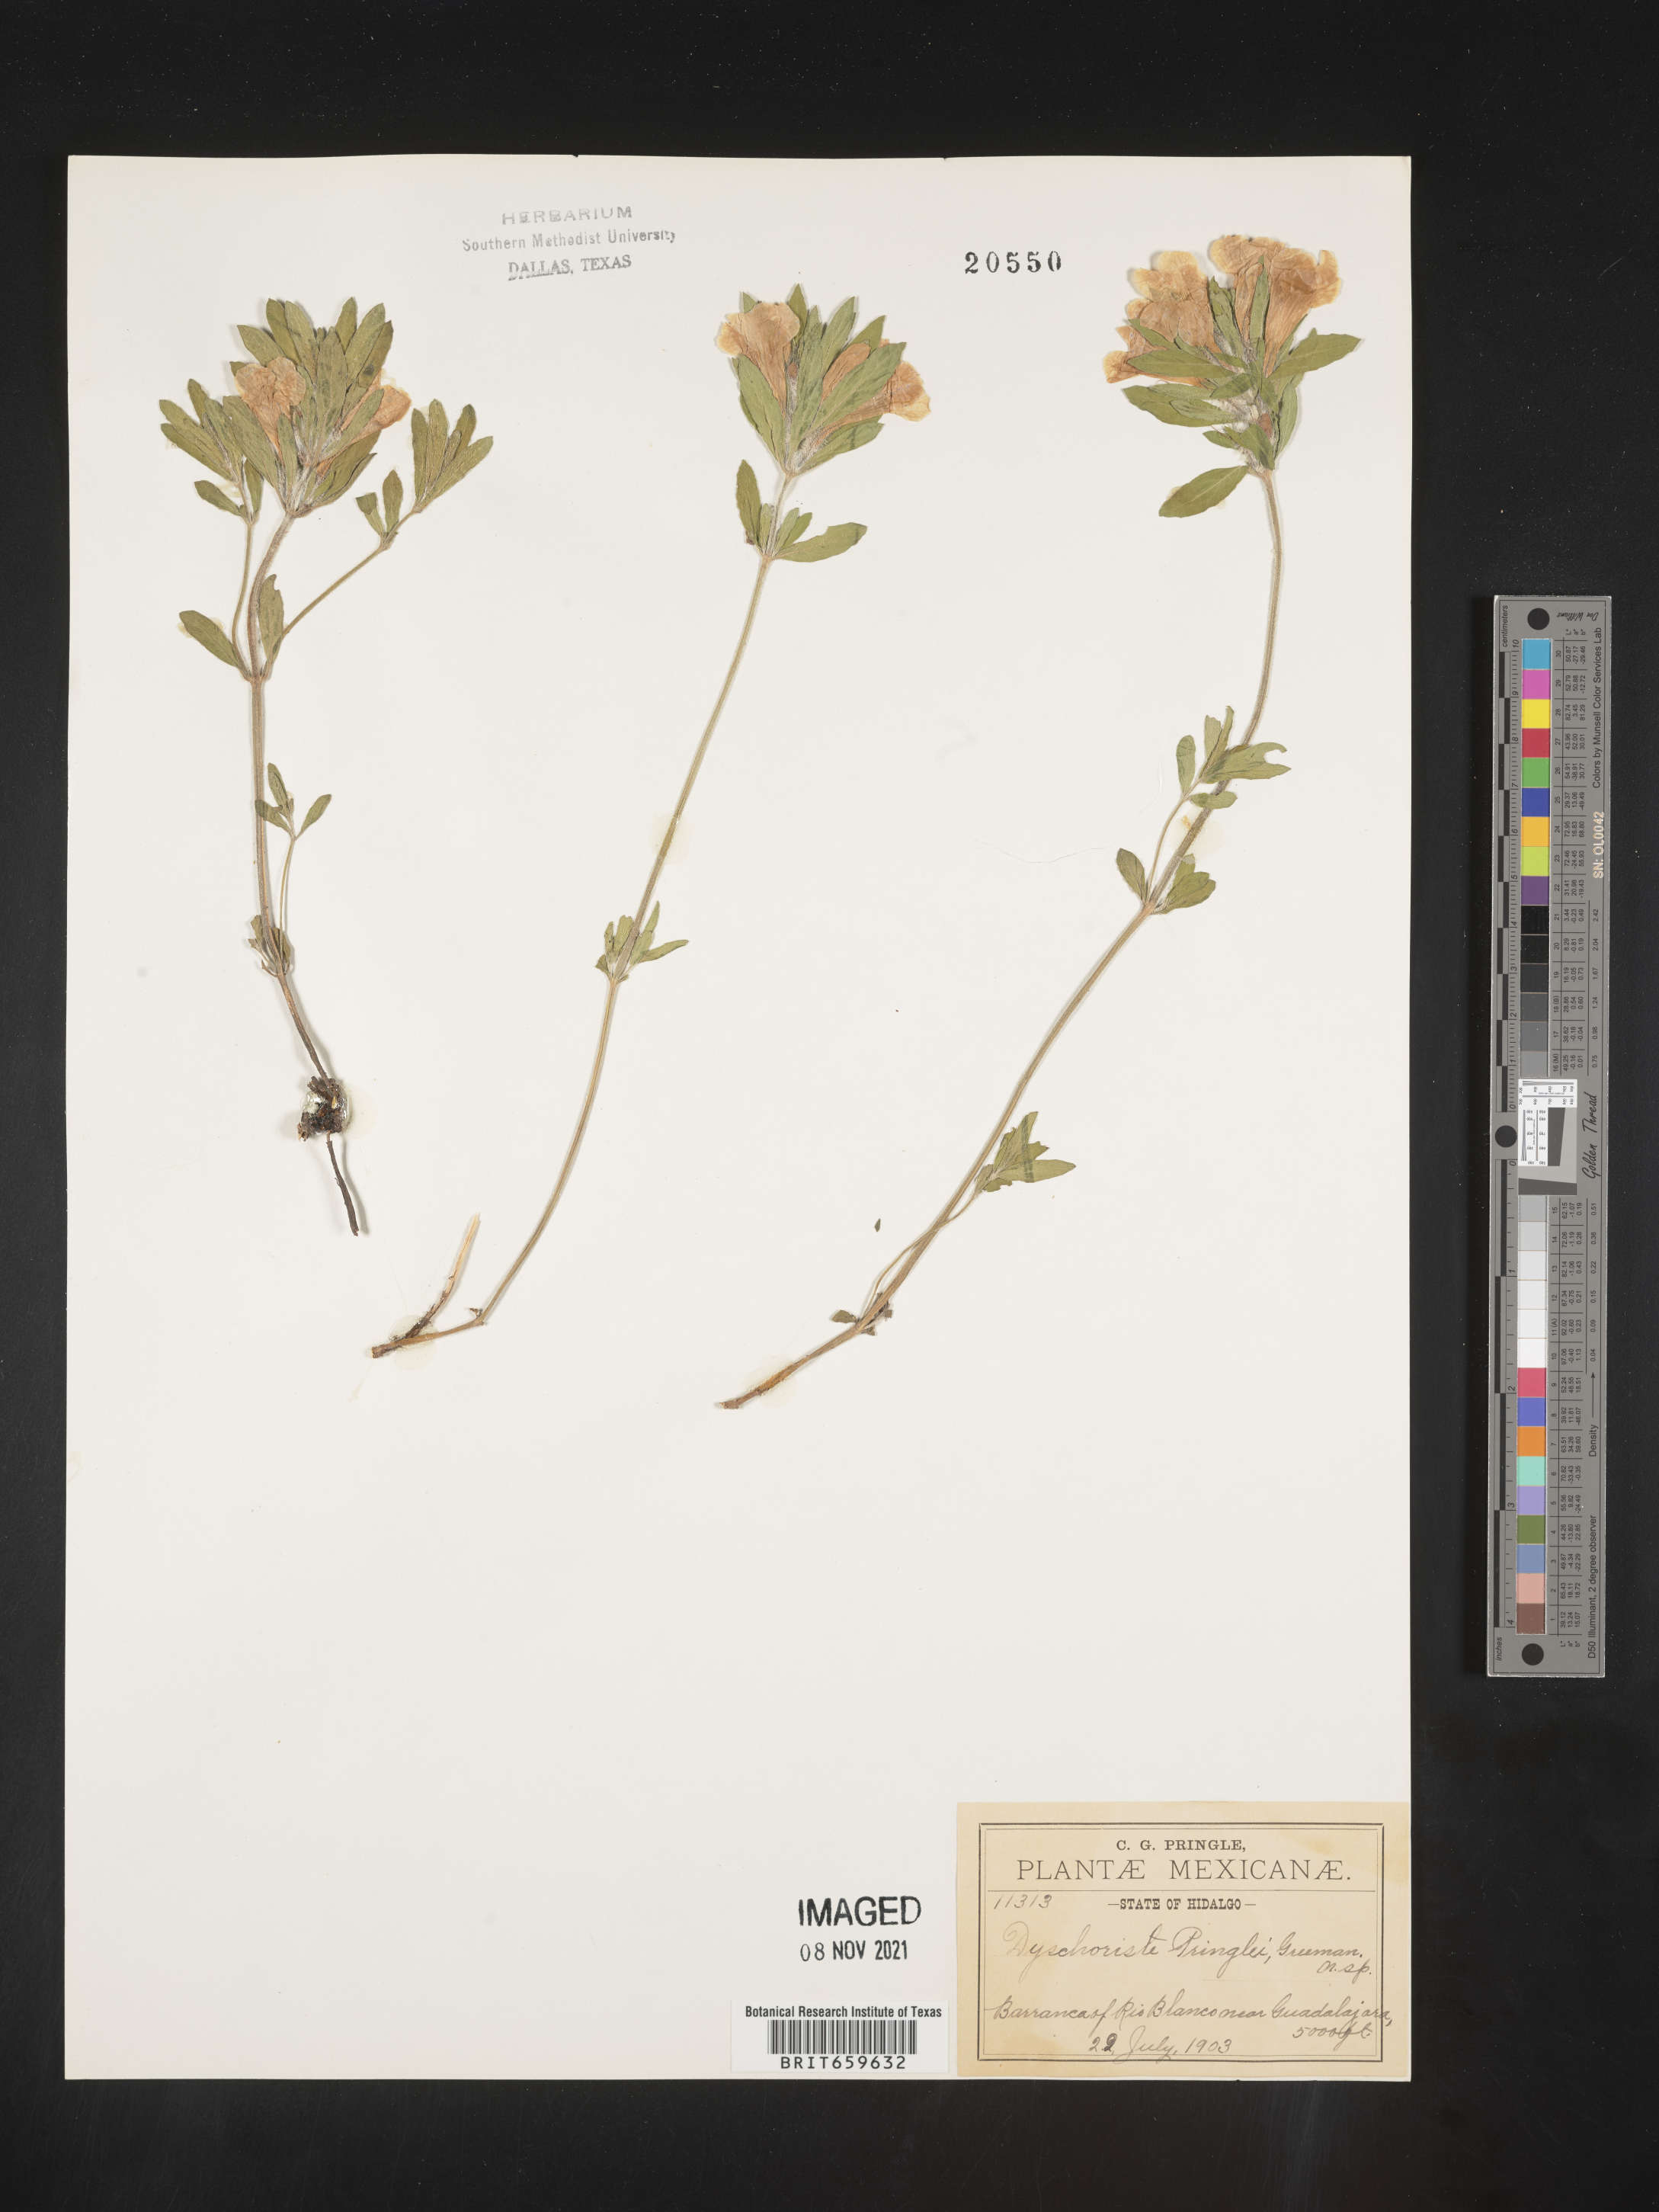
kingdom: Plantae
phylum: Tracheophyta
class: Magnoliopsida
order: Lamiales
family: Acanthaceae
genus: Dyschoriste
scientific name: Dyschoriste
